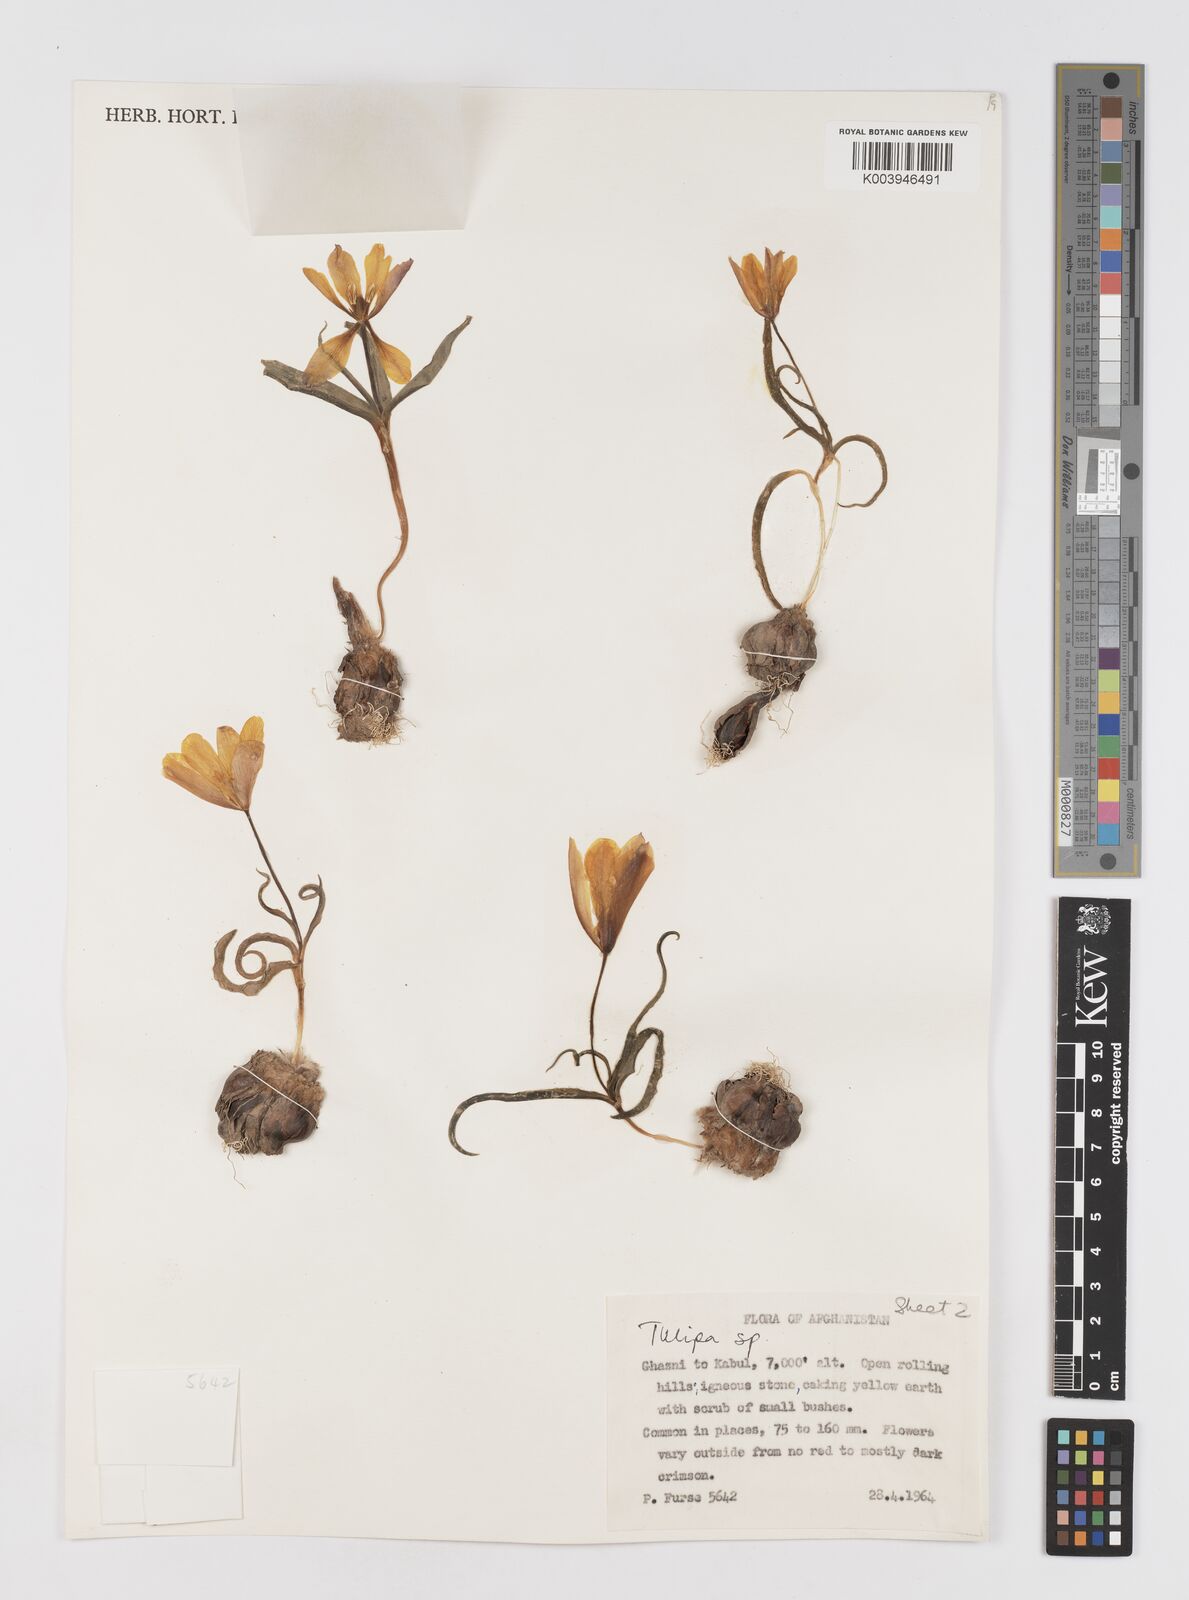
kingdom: Plantae
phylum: Tracheophyta
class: Liliopsida
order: Liliales
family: Liliaceae
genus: Tulipa
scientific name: Tulipa
